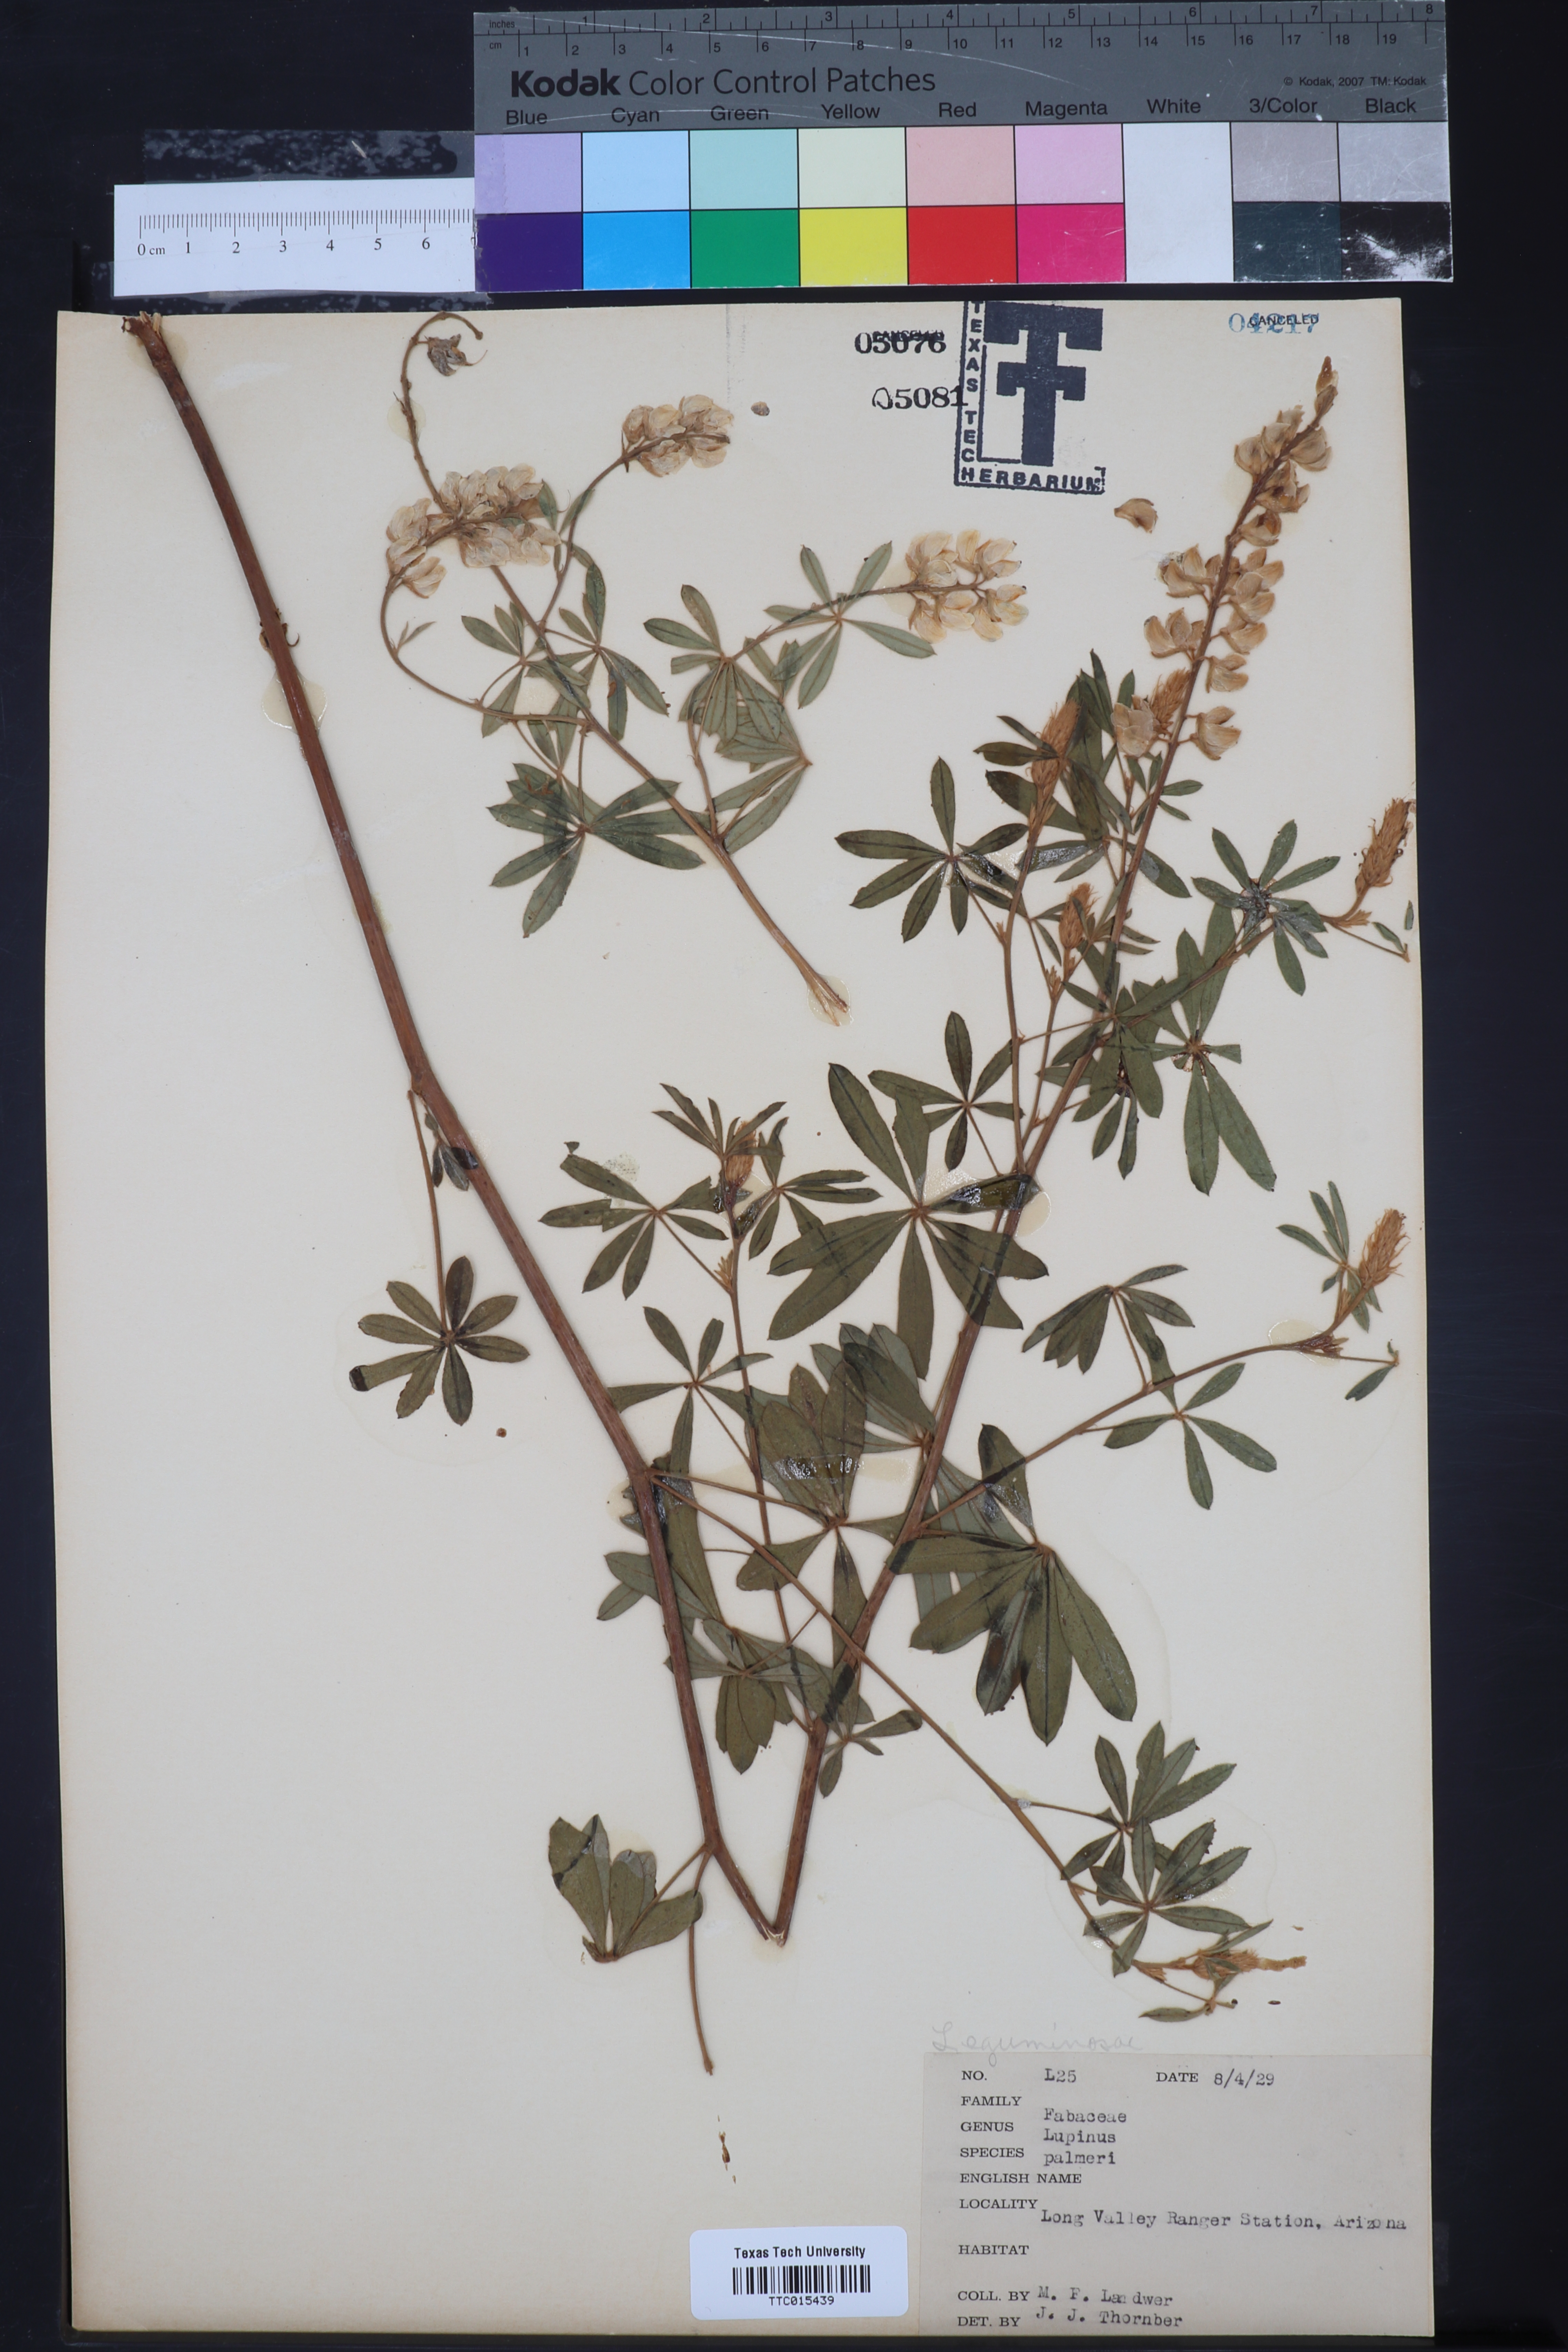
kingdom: Plantae
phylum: Tracheophyta
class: Magnoliopsida
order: Fabales
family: Fabaceae
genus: Lupinus
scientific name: Lupinus argenteus
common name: Silvery lupine
